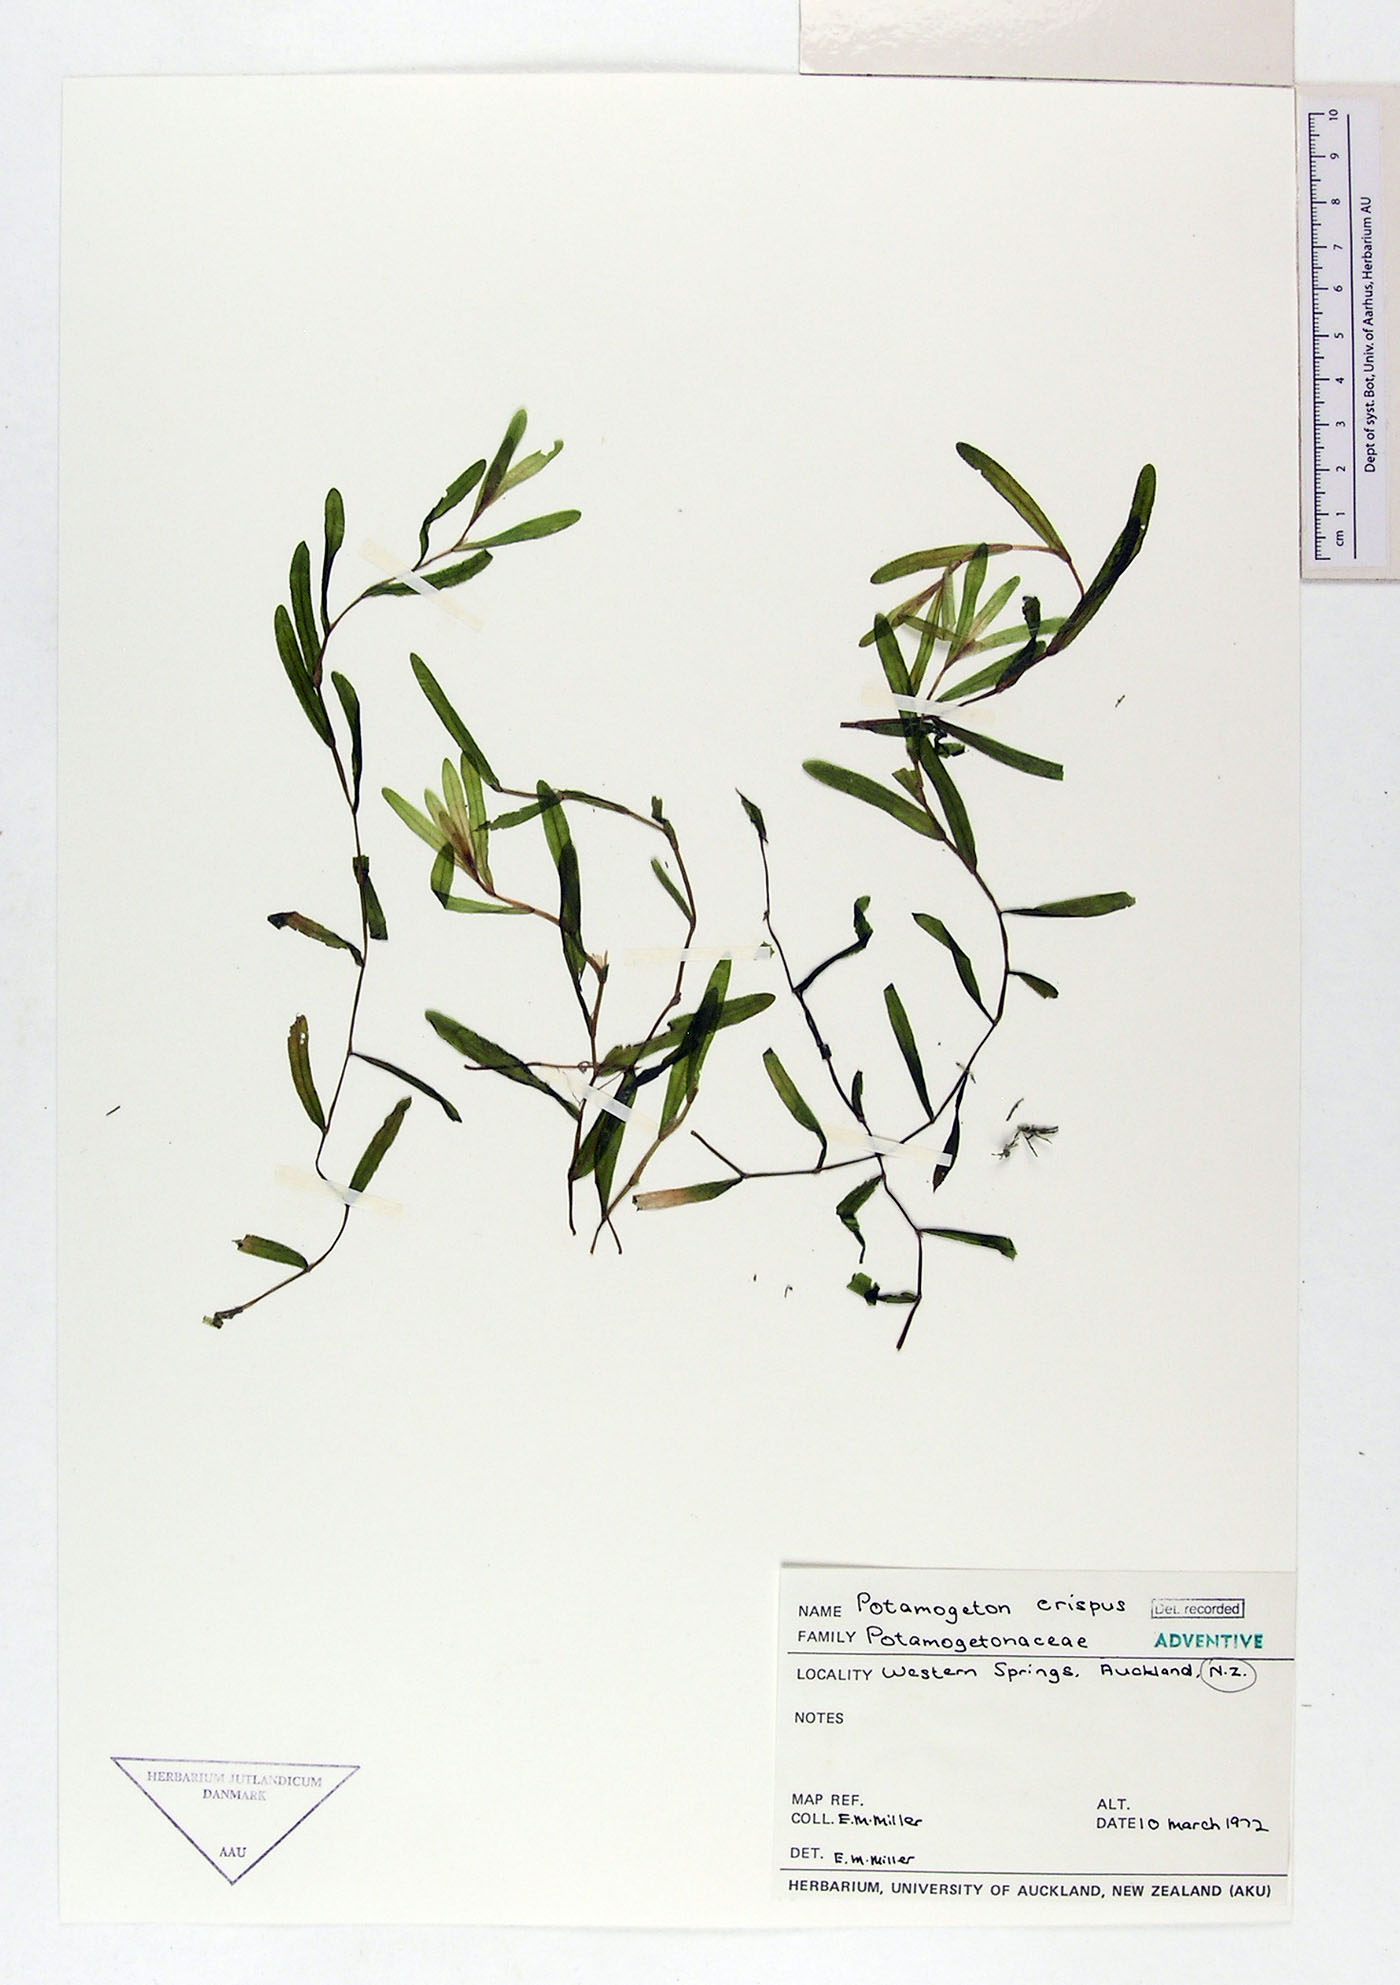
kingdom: Plantae
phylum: Tracheophyta
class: Liliopsida
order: Alismatales
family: Potamogetonaceae
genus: Potamogeton
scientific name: Potamogeton crispus
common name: Curled pondweed
